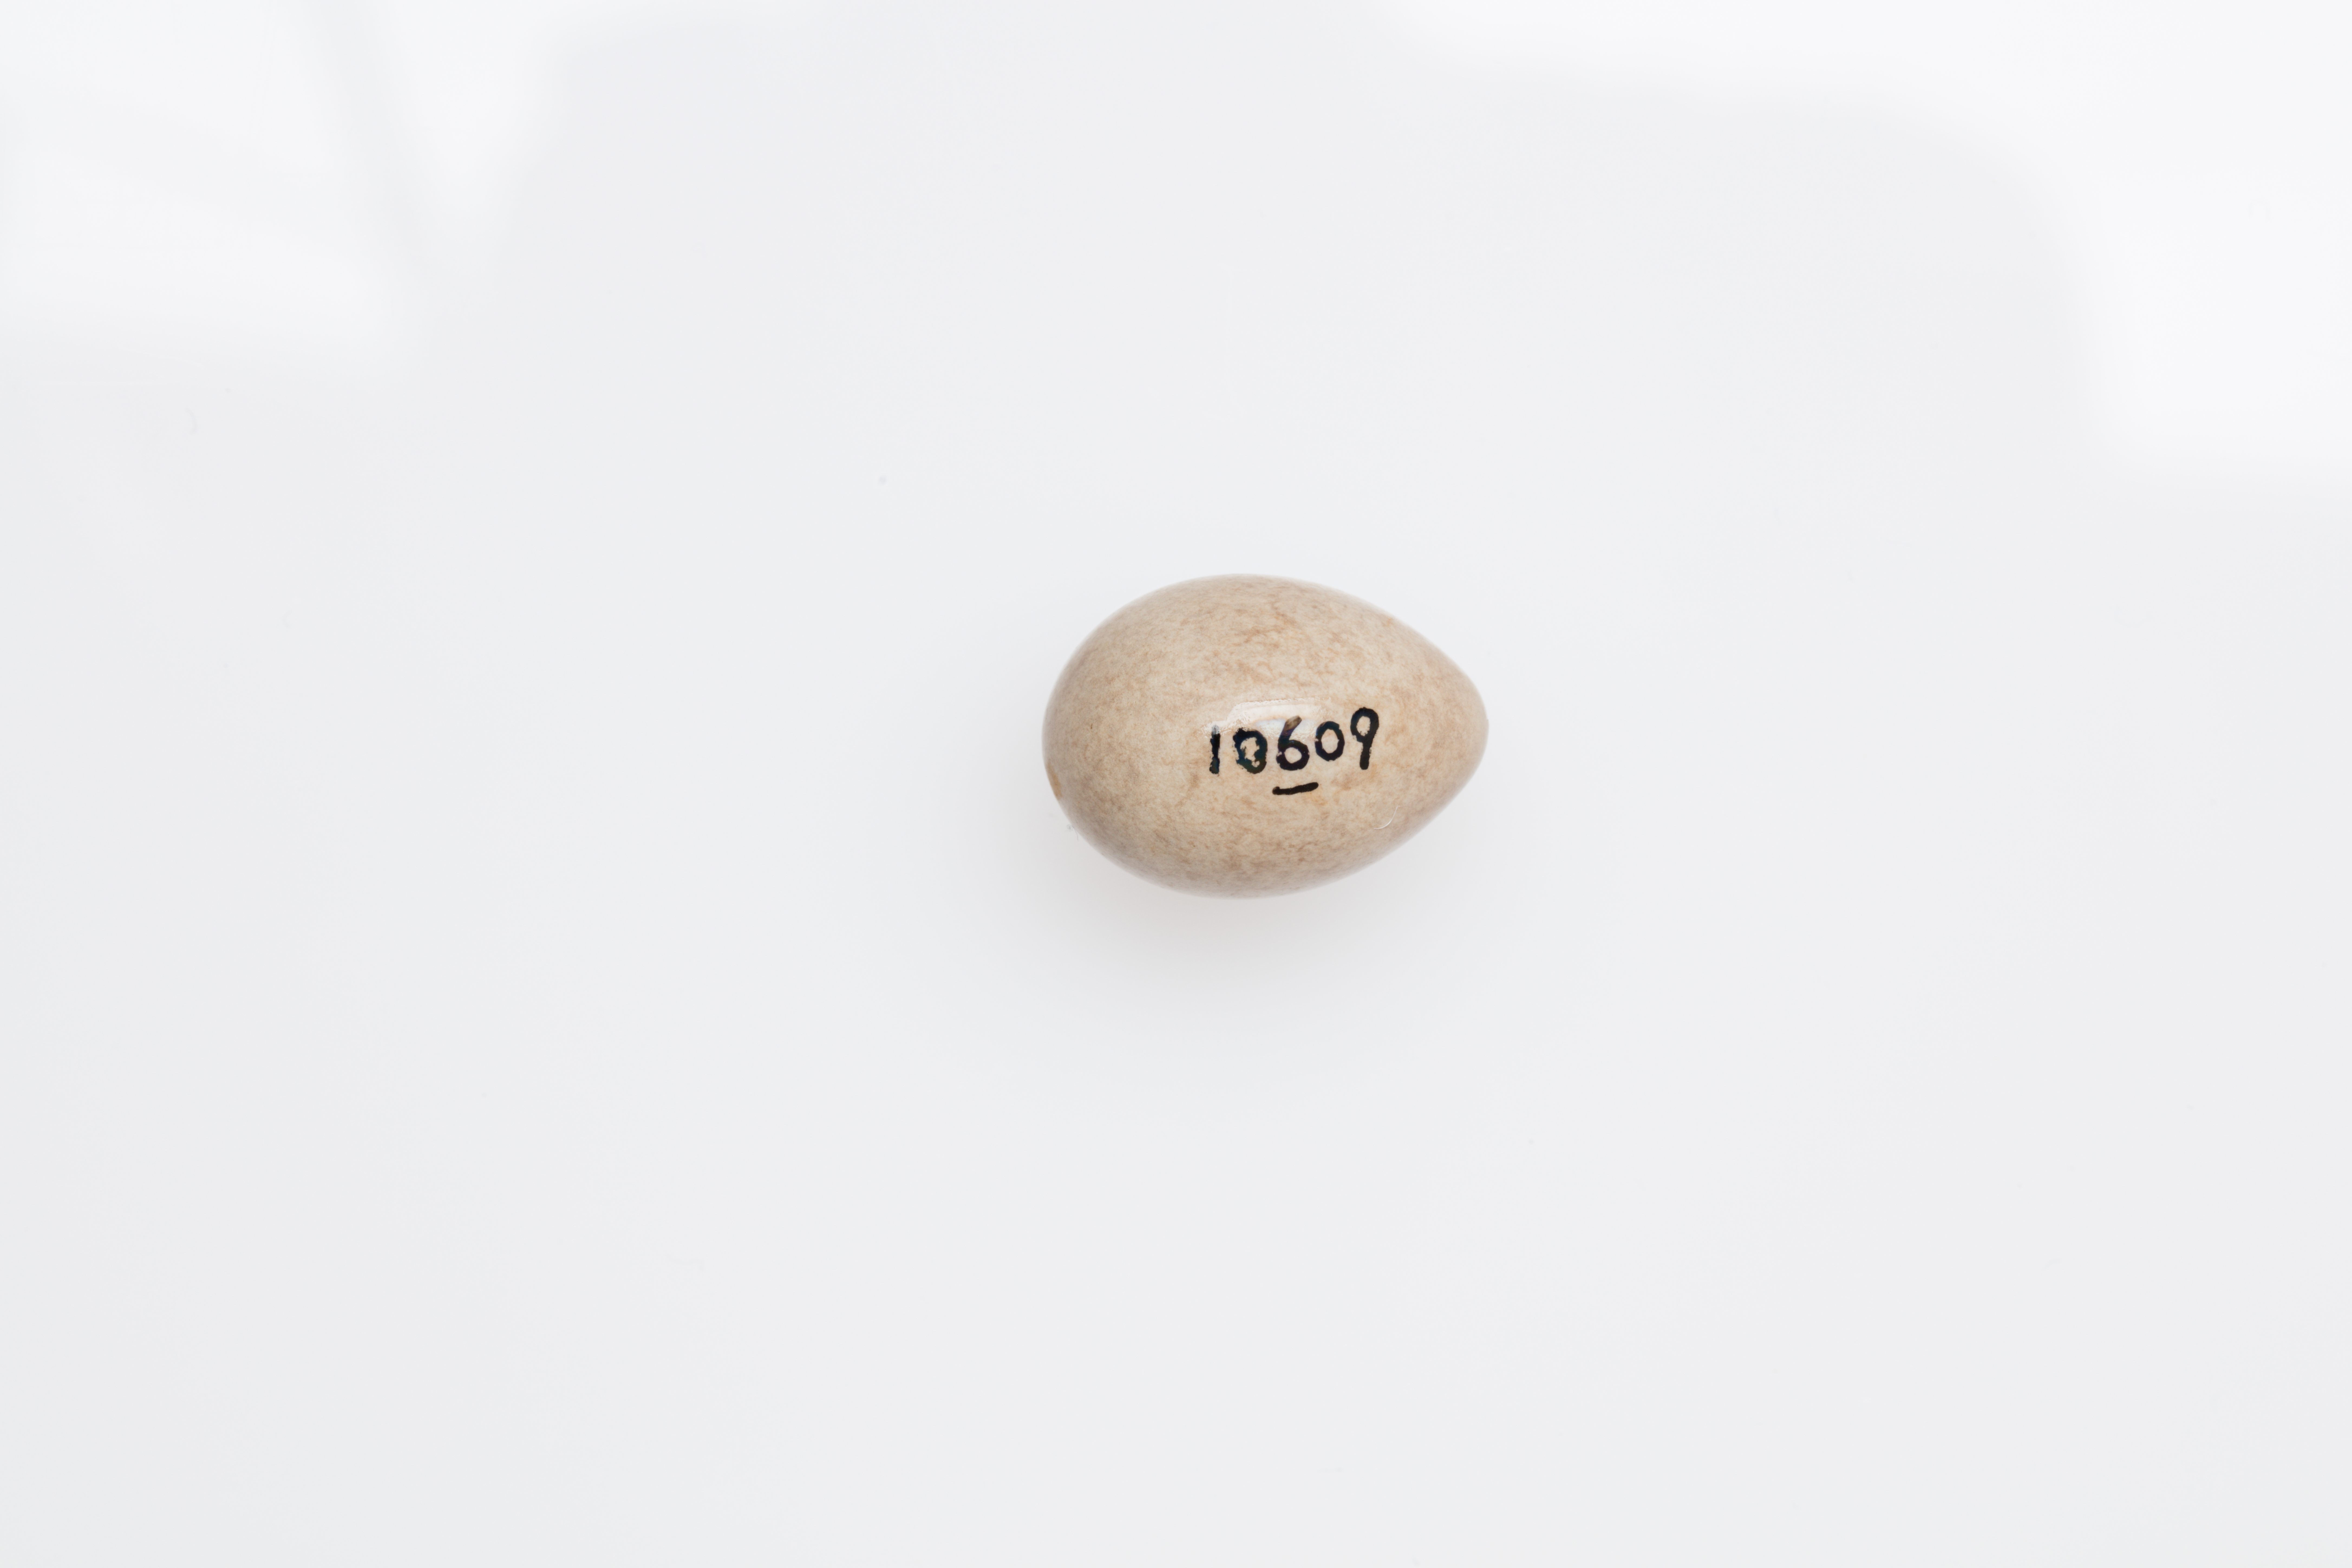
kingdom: Animalia
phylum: Chordata
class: Aves
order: Passeriformes
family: Motacillidae
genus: Motacilla
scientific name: Motacilla flava
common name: Western yellow wagtail
